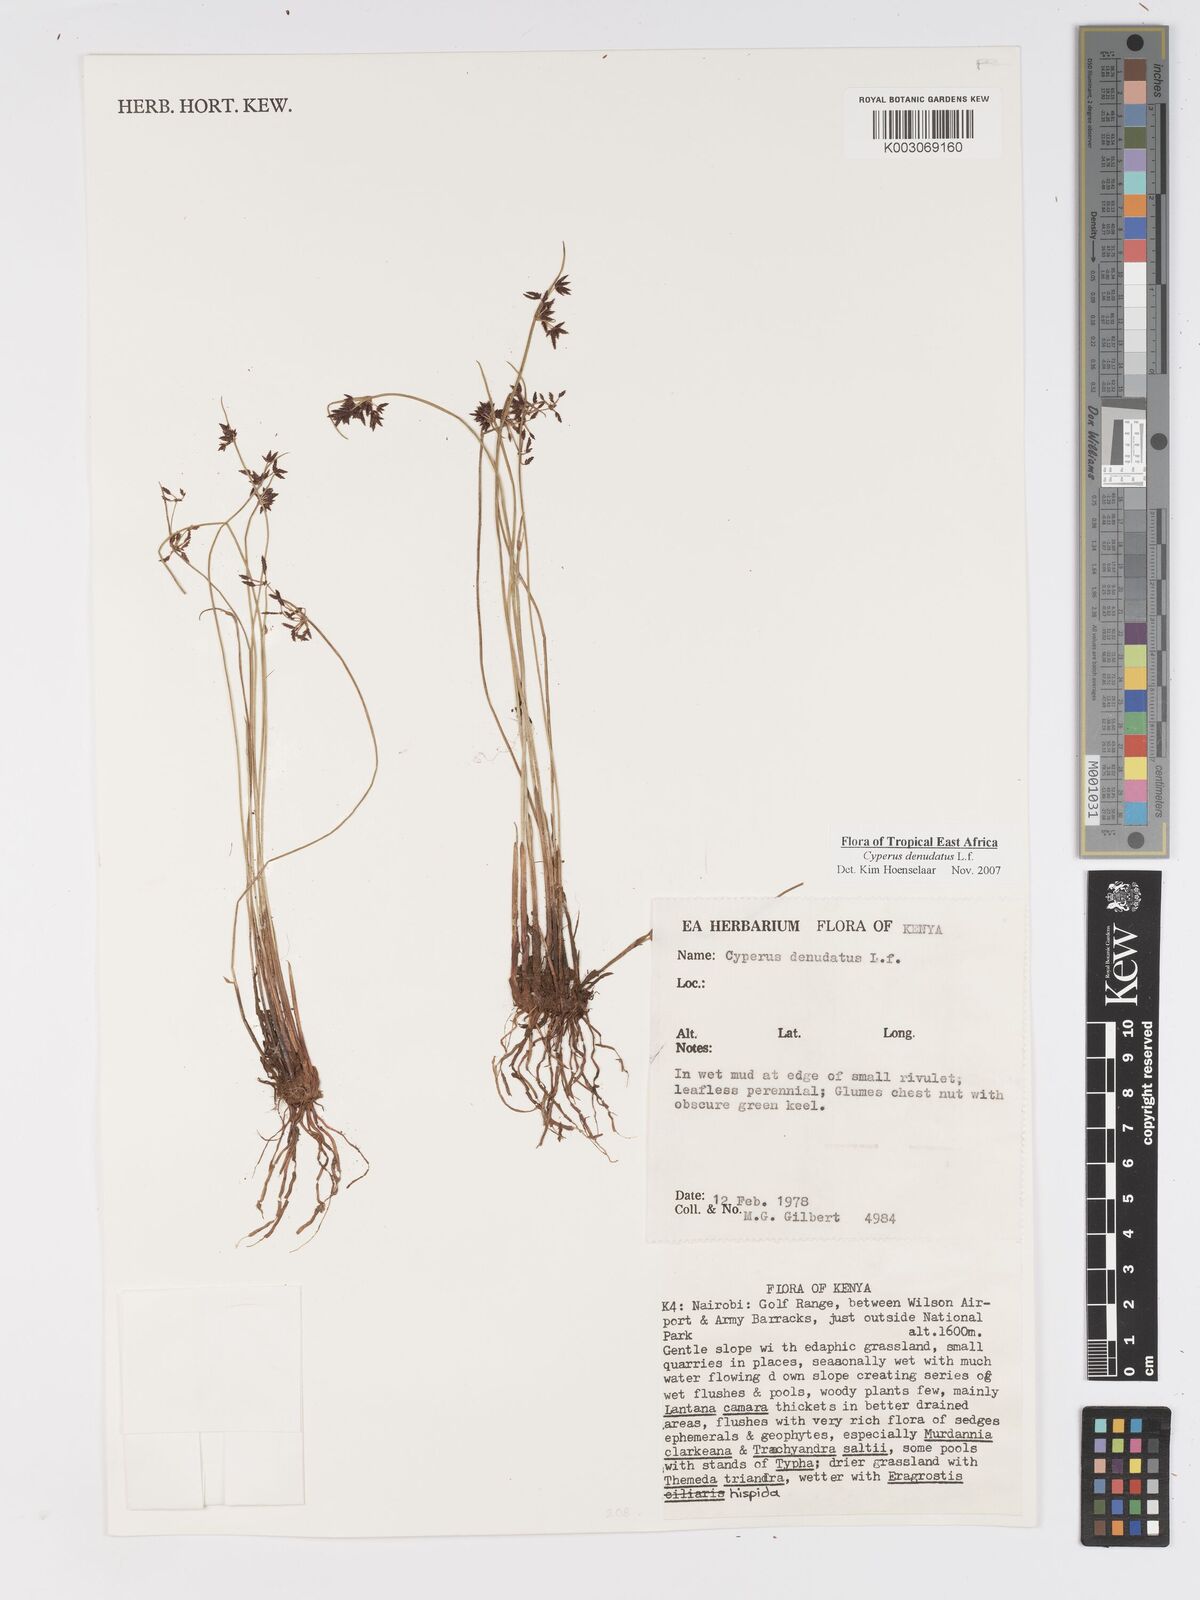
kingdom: Plantae
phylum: Tracheophyta
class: Liliopsida
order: Poales
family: Cyperaceae
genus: Cyperus
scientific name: Cyperus denudatus
